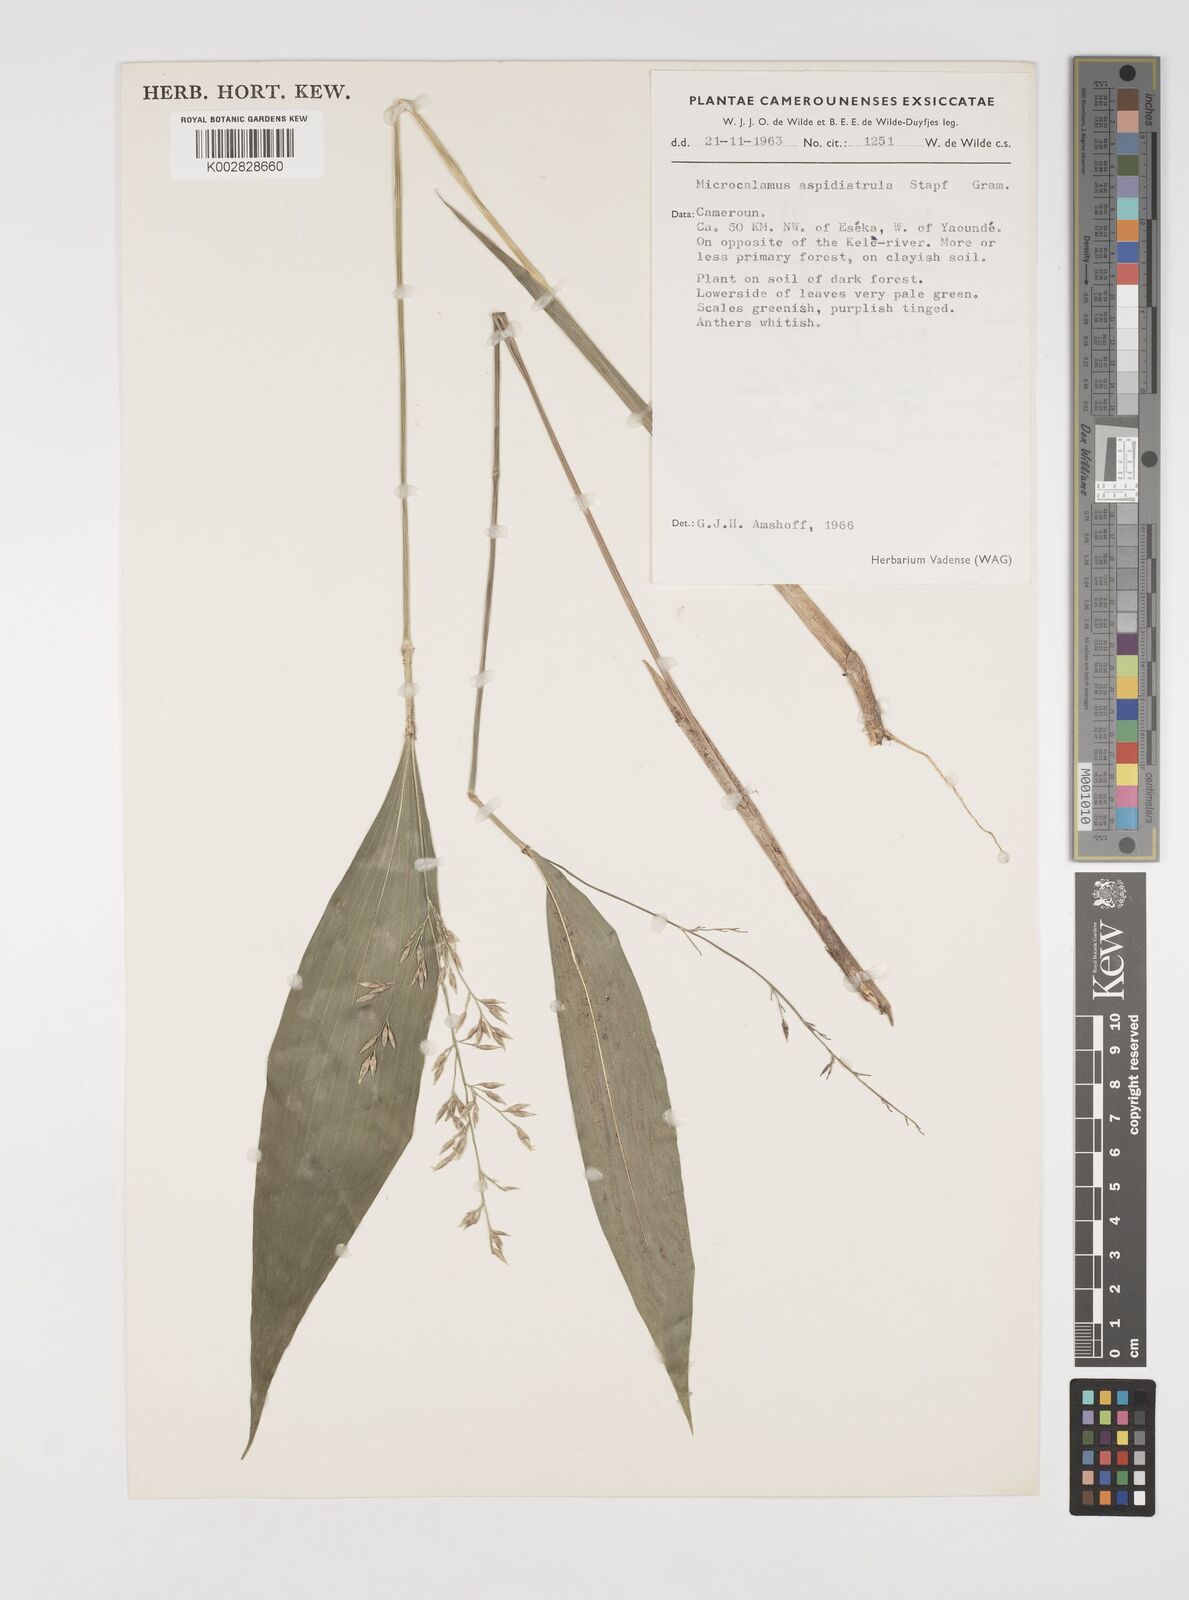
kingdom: Plantae
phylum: Tracheophyta
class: Liliopsida
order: Poales
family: Poaceae
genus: Microcalamus
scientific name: Microcalamus barbinodis
